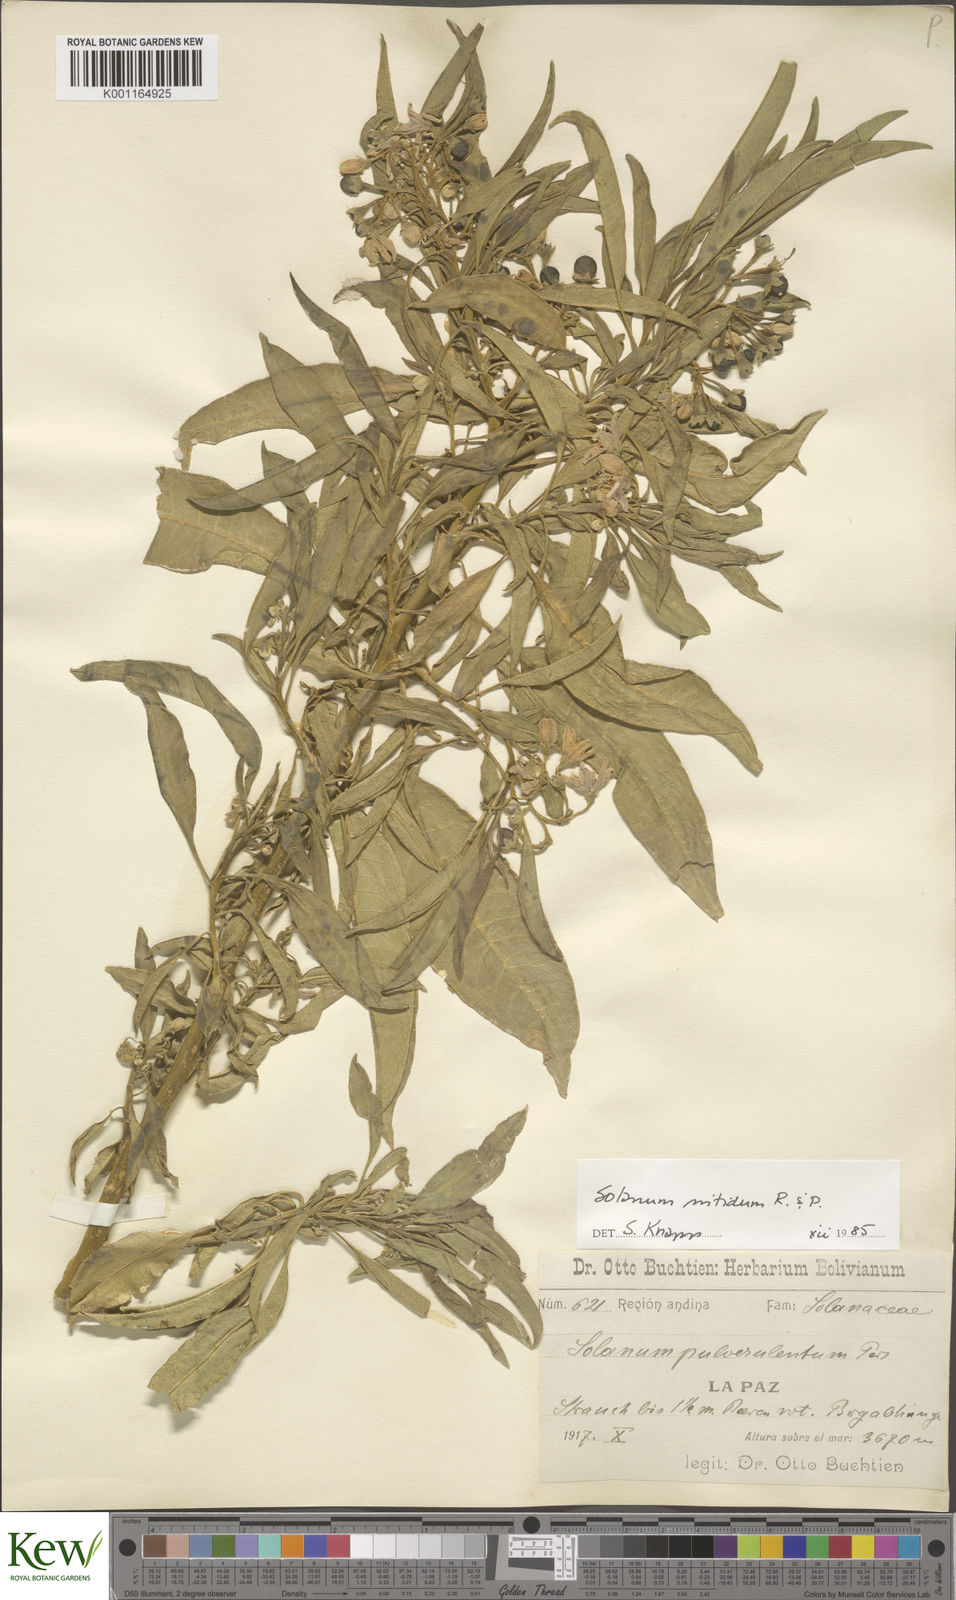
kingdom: Plantae
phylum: Tracheophyta
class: Magnoliopsida
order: Solanales
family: Solanaceae
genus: Solanum
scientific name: Solanum nitidum
